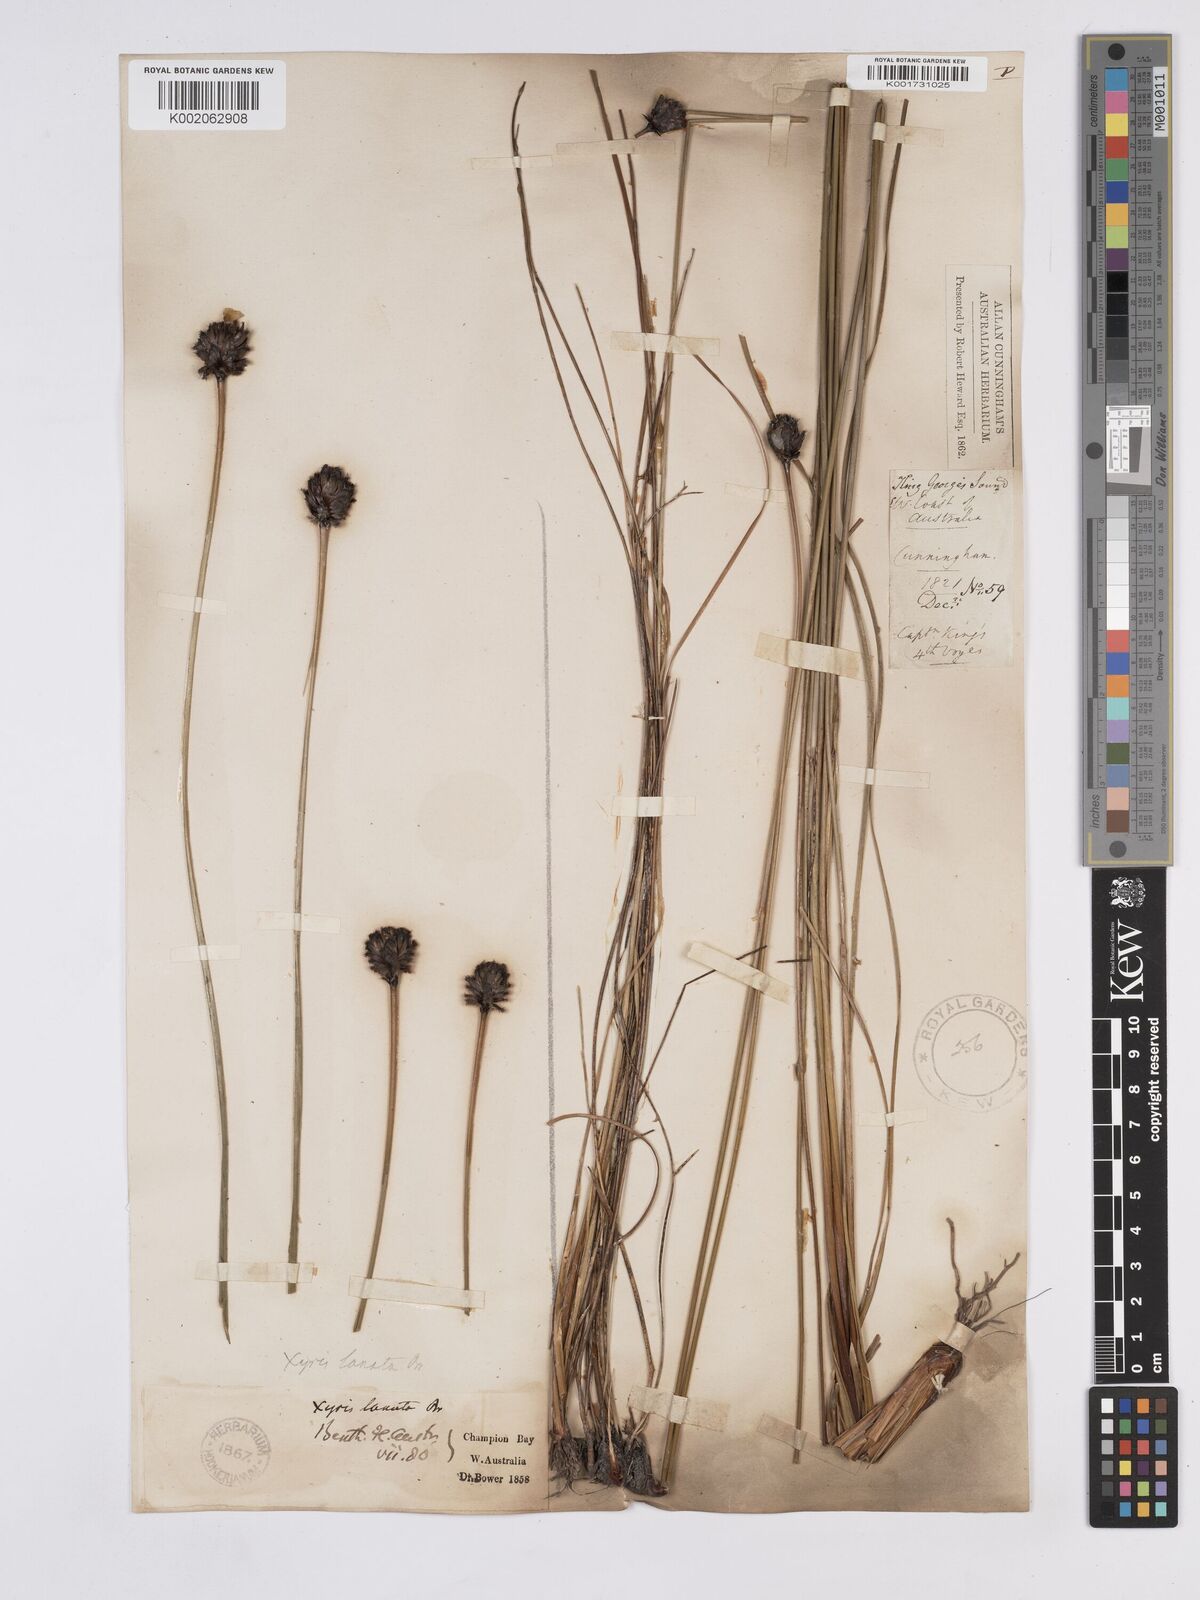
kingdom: Plantae
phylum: Tracheophyta
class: Liliopsida
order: Poales
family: Xyridaceae
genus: Xyris
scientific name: Xyris lanata
